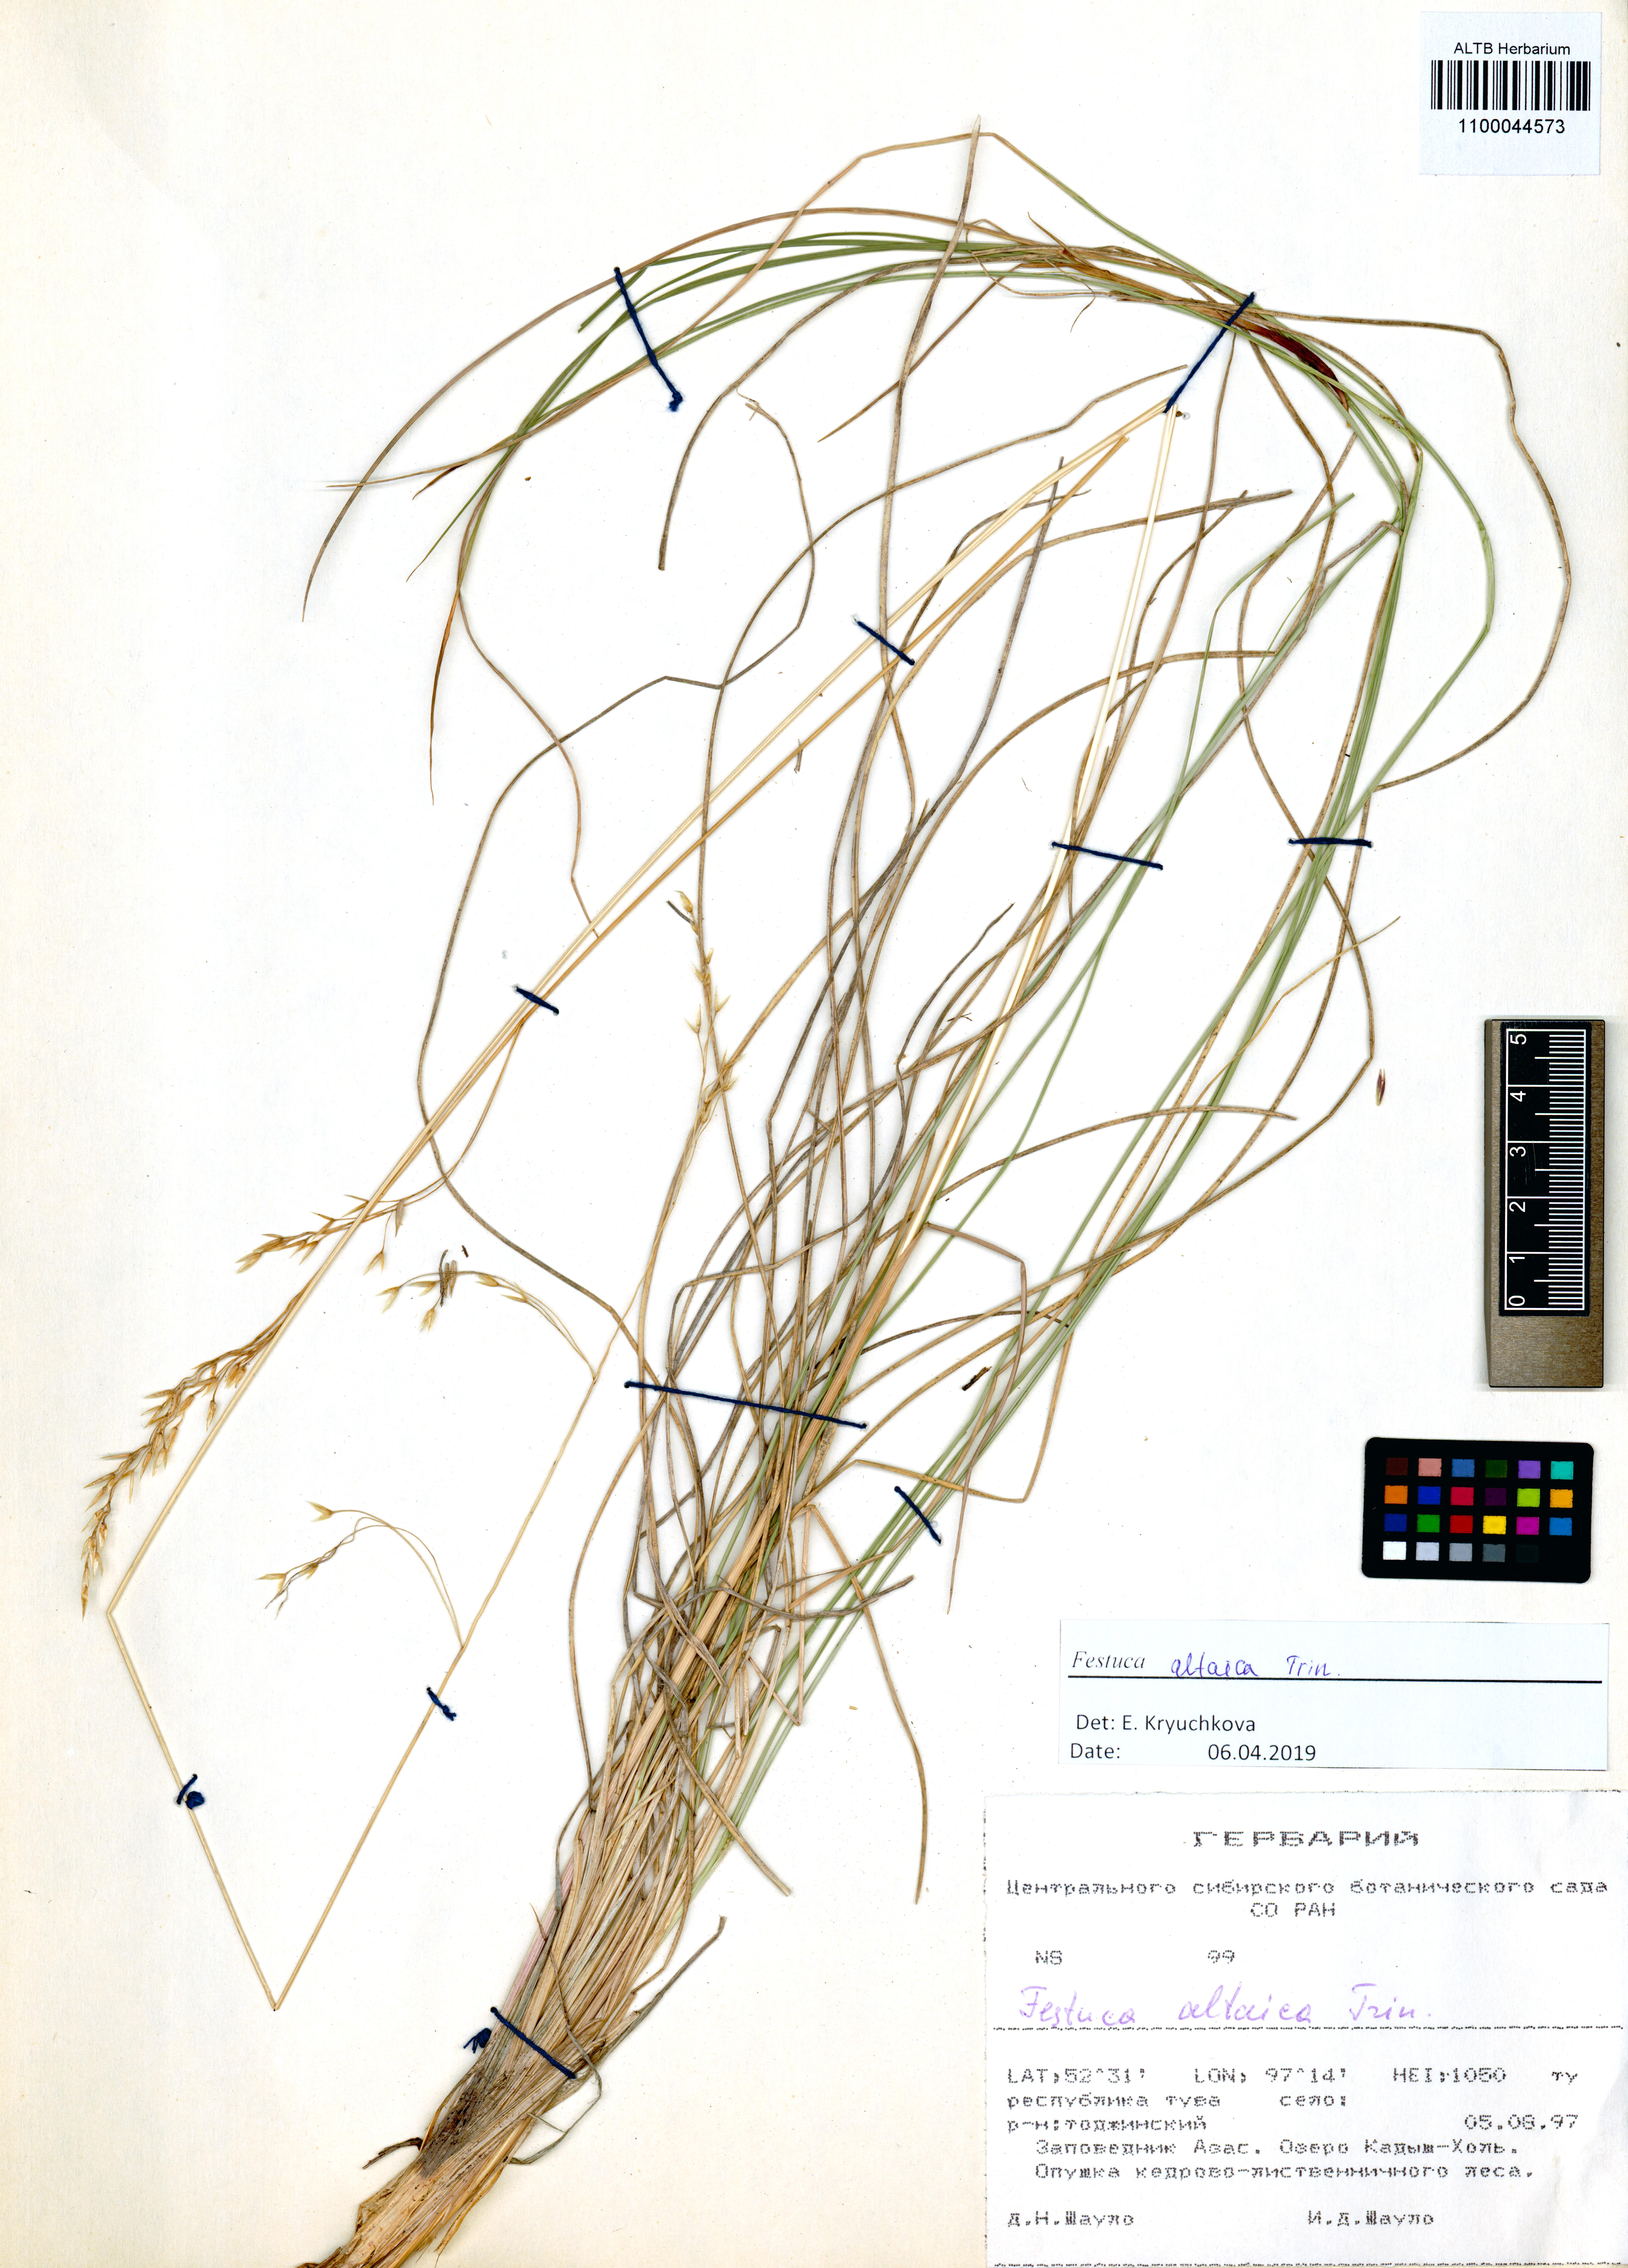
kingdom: Plantae
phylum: Tracheophyta
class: Liliopsida
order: Poales
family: Poaceae
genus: Festuca
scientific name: Festuca altaica
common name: Northern rough fescue
